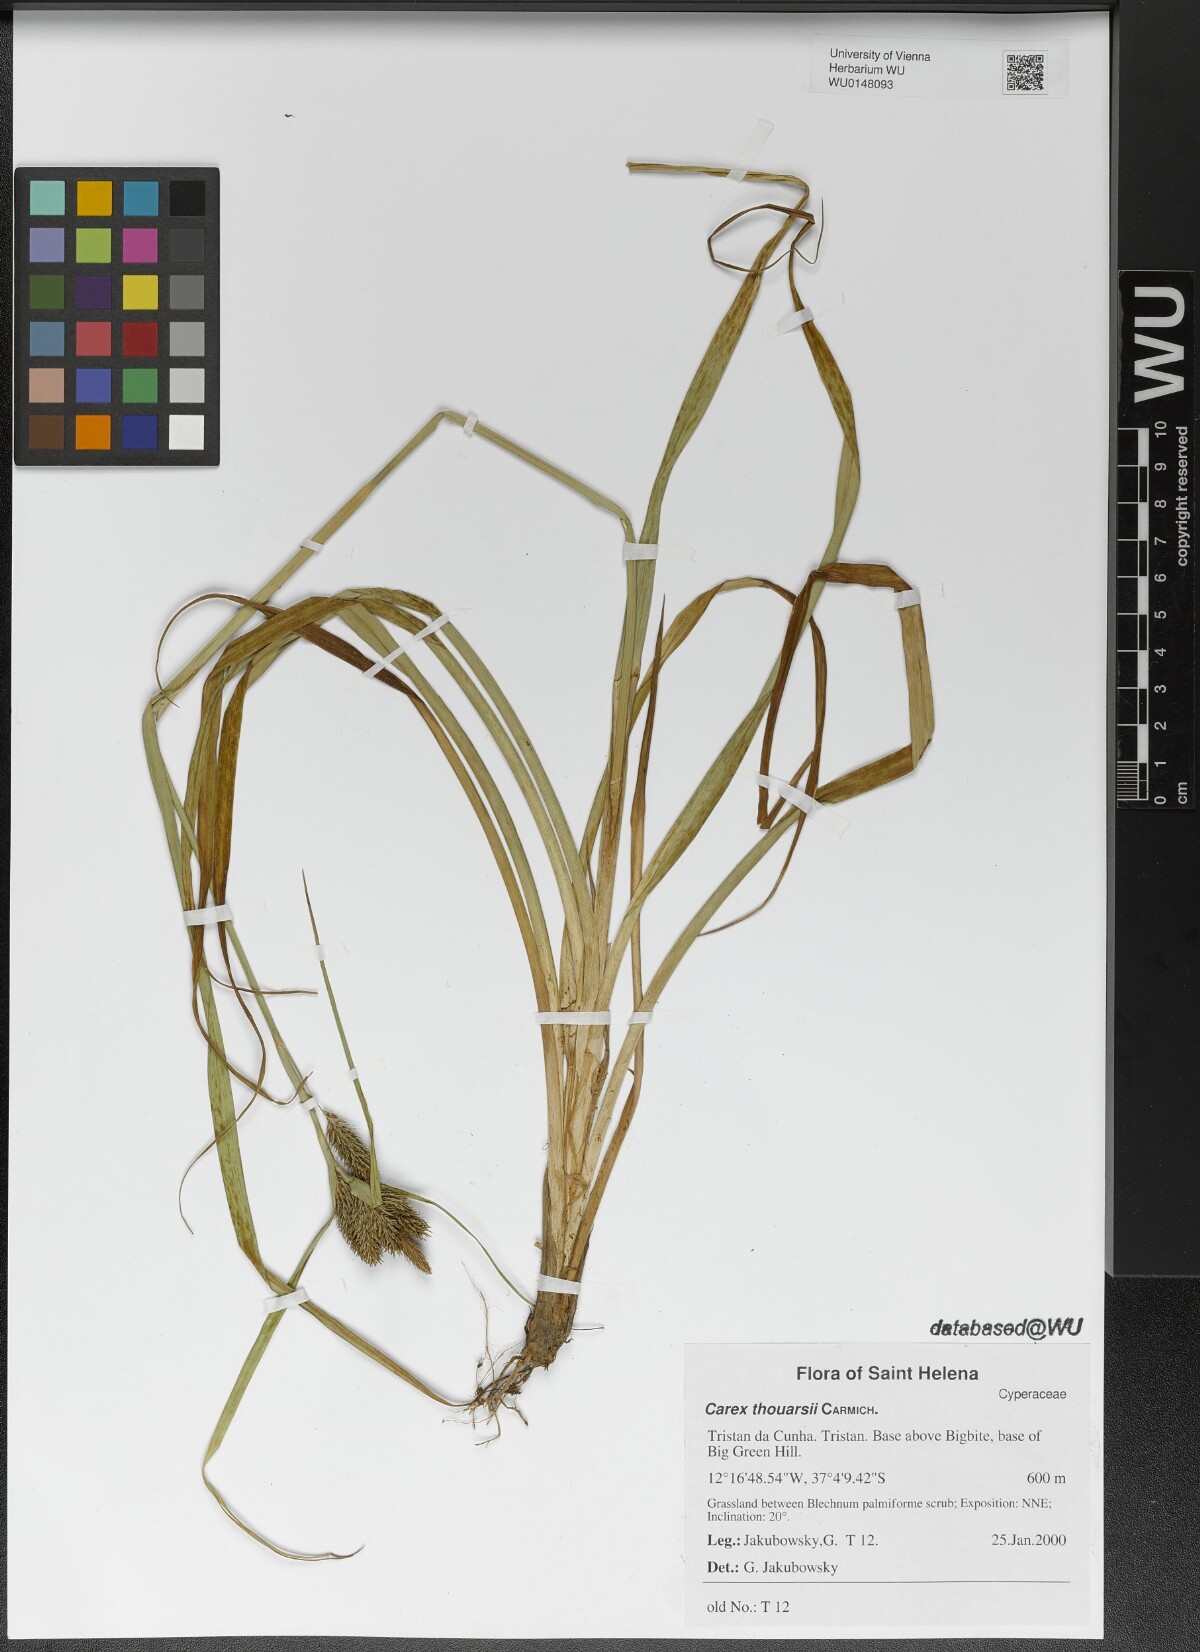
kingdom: Plantae
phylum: Tracheophyta
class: Liliopsida
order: Poales
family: Cyperaceae
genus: Carex
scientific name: Carex thouarsii
